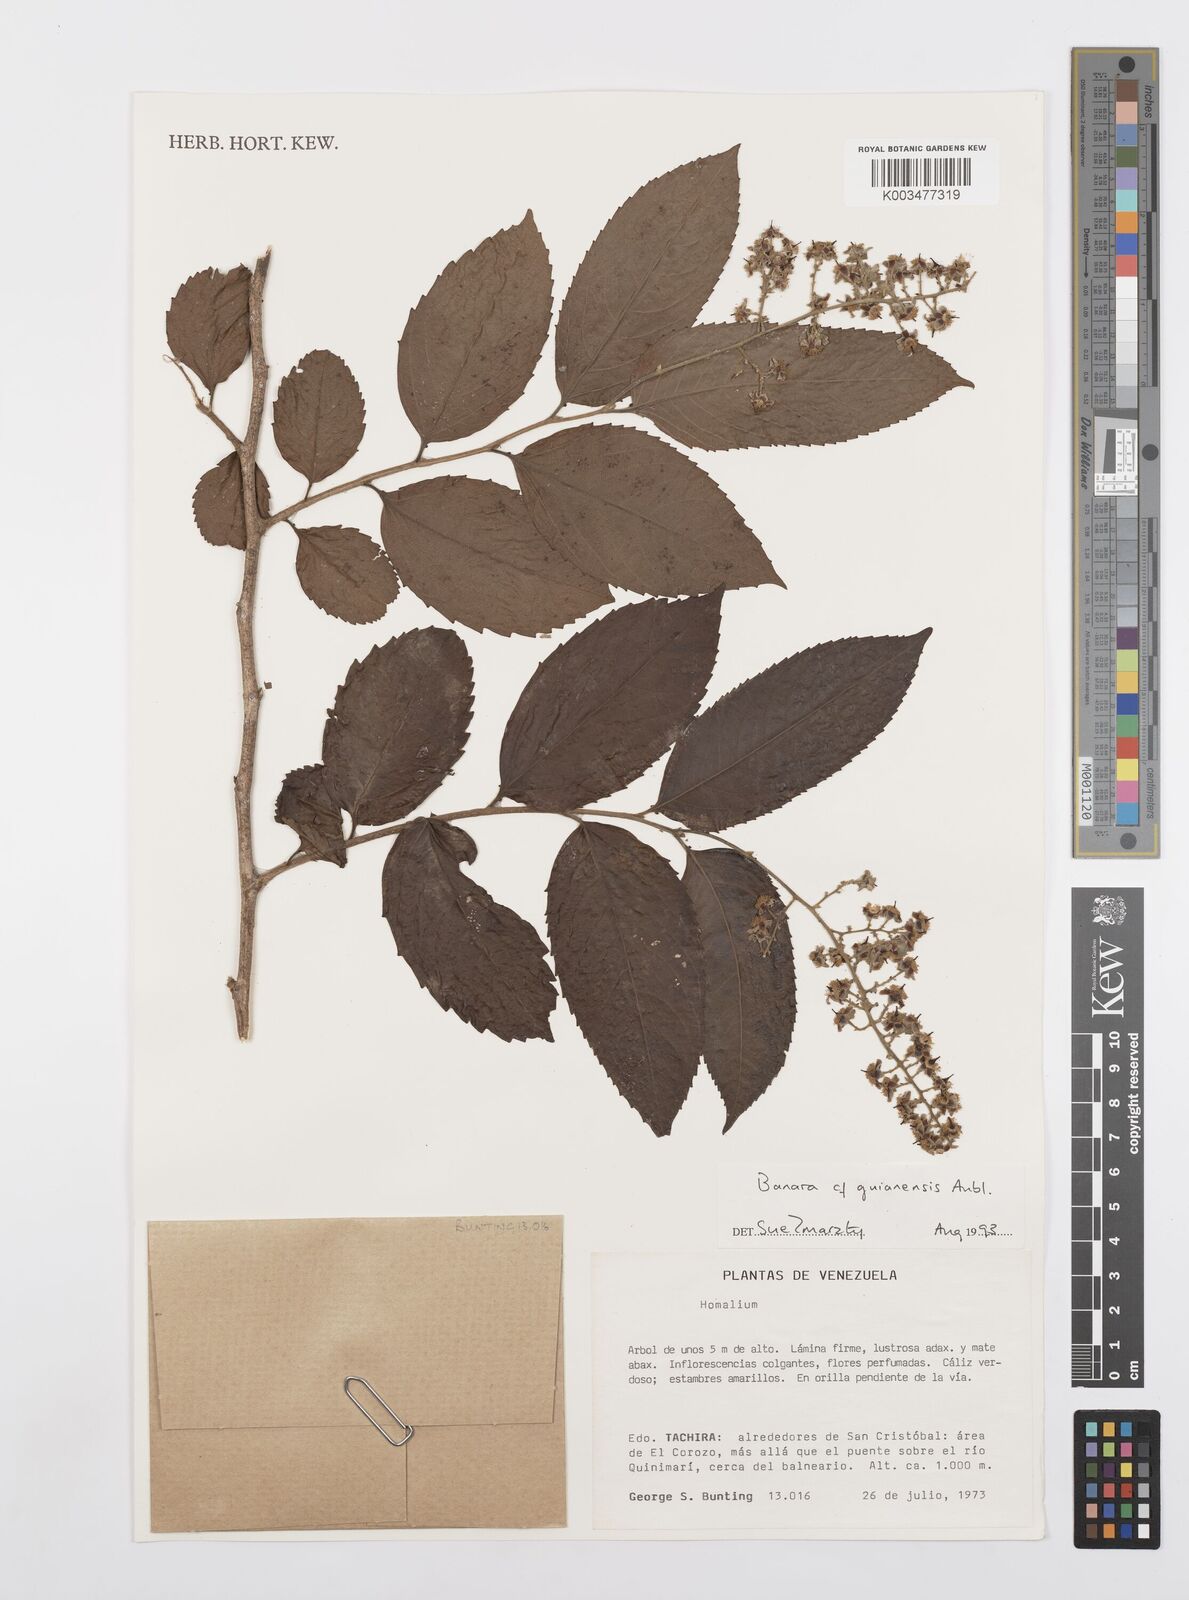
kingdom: Plantae
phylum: Tracheophyta
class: Magnoliopsida
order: Malpighiales
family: Salicaceae
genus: Banara
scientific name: Banara guianensis
